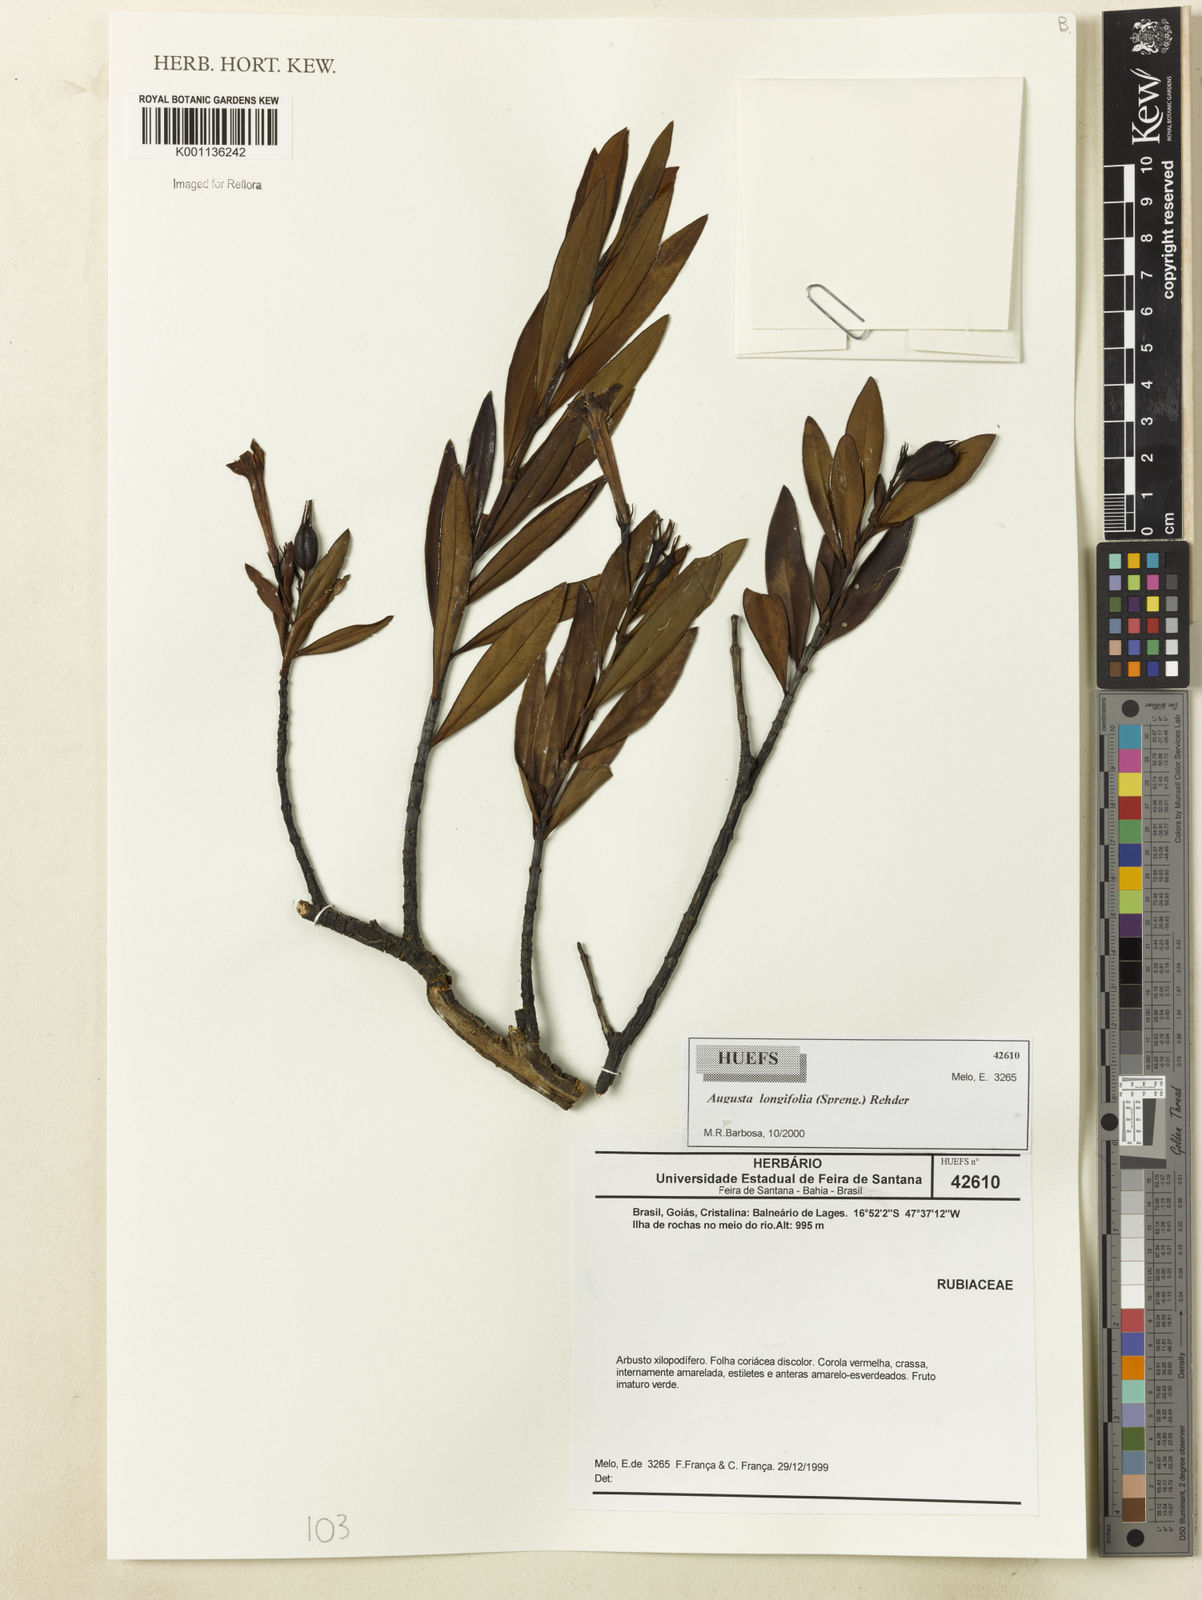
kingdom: Plantae
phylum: Tracheophyta
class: Magnoliopsida
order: Gentianales
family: Rubiaceae
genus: Augusta
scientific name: Augusta longifolia
